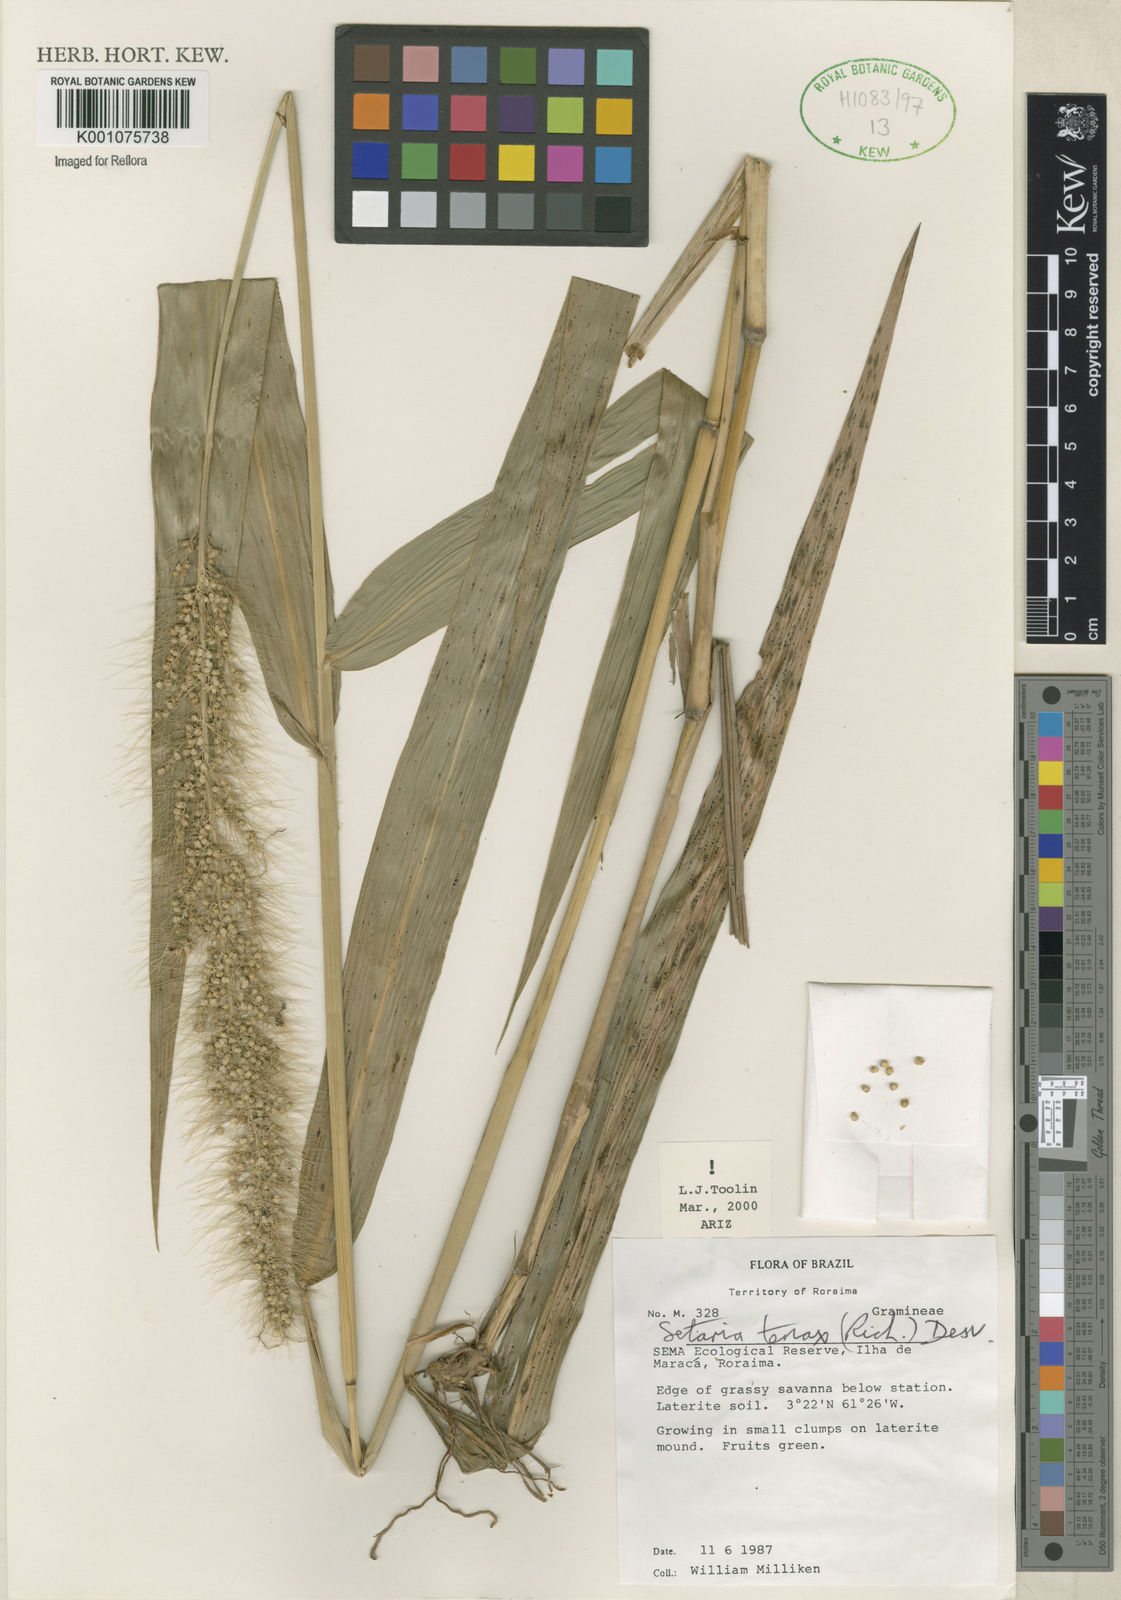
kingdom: Plantae
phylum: Tracheophyta
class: Liliopsida
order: Poales
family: Poaceae
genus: Setaria
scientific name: Setaria tenax
